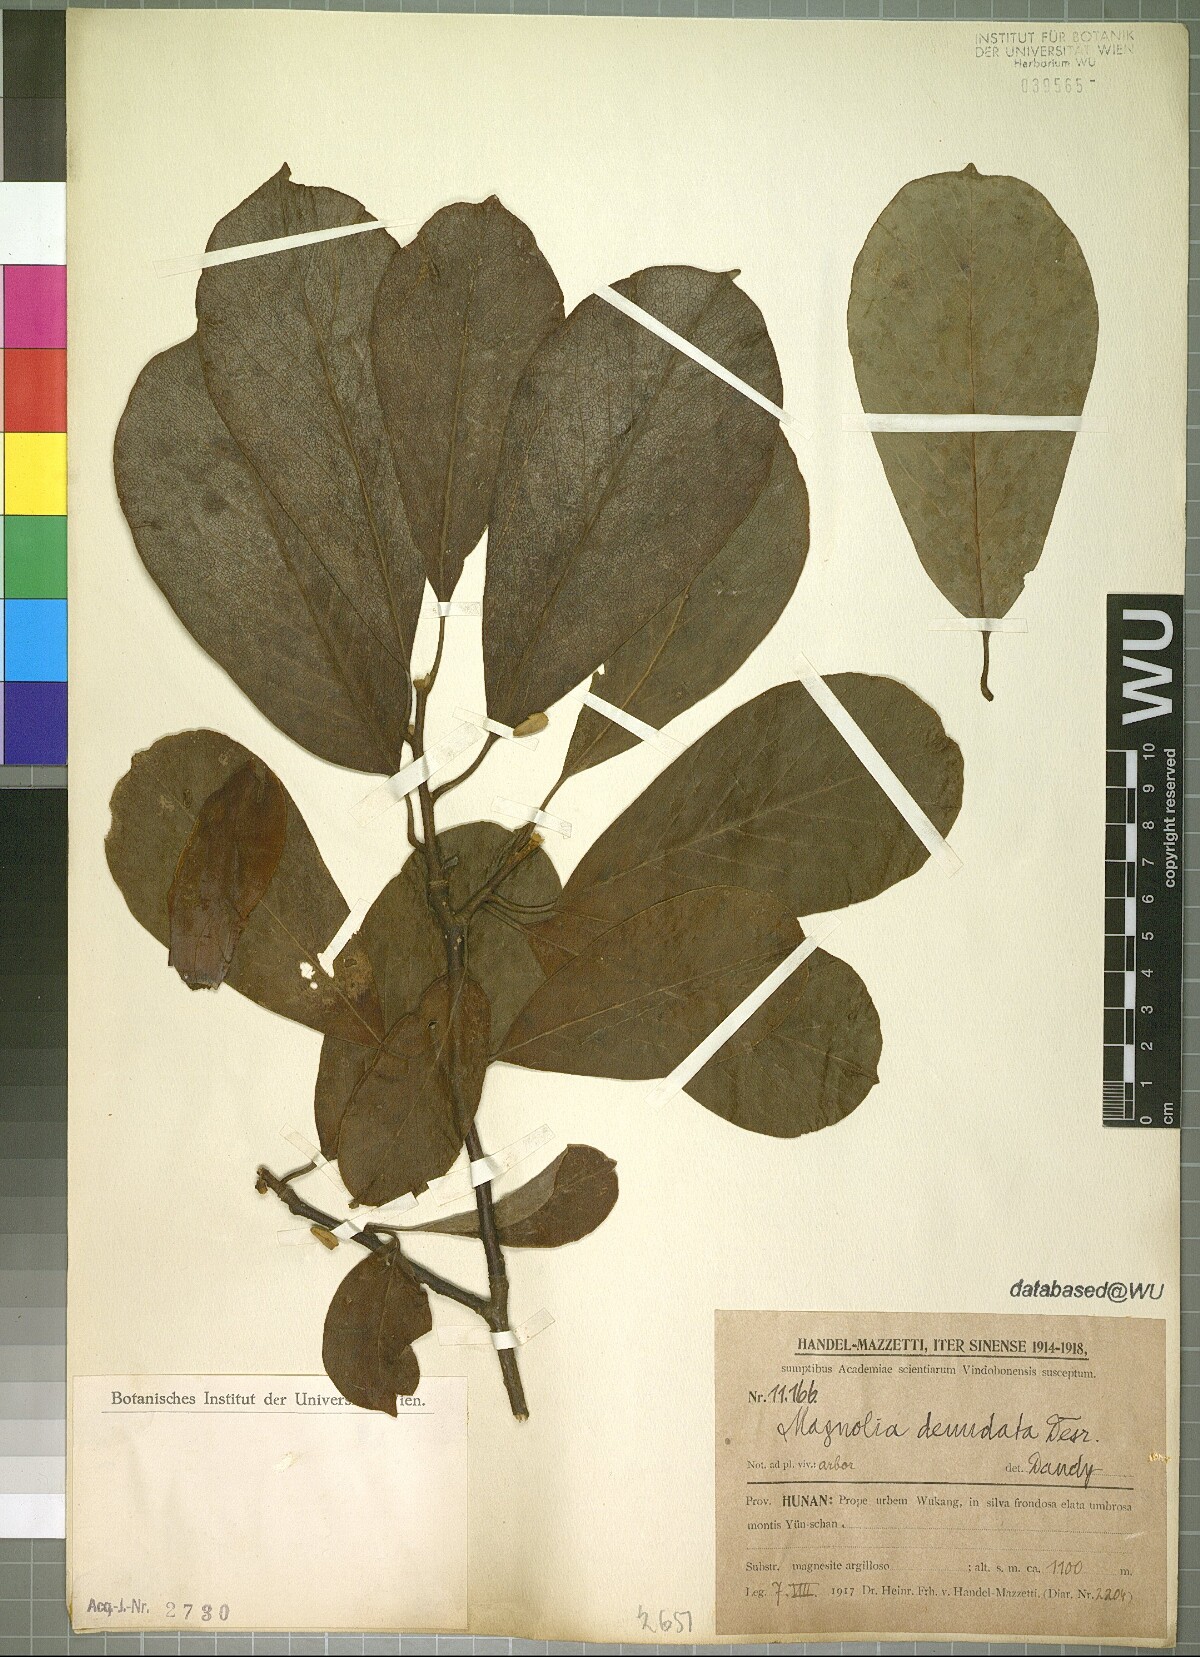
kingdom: Plantae
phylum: Tracheophyta
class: Magnoliopsida
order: Magnoliales
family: Magnoliaceae
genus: Magnolia
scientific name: Magnolia denudata
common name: Lilytree
